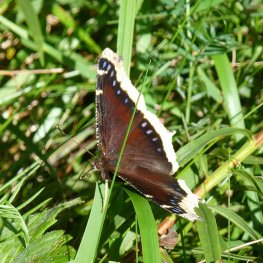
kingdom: Animalia
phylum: Arthropoda
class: Insecta
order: Lepidoptera
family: Nymphalidae
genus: Nymphalis
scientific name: Nymphalis antiopa
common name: Mourning Cloak
